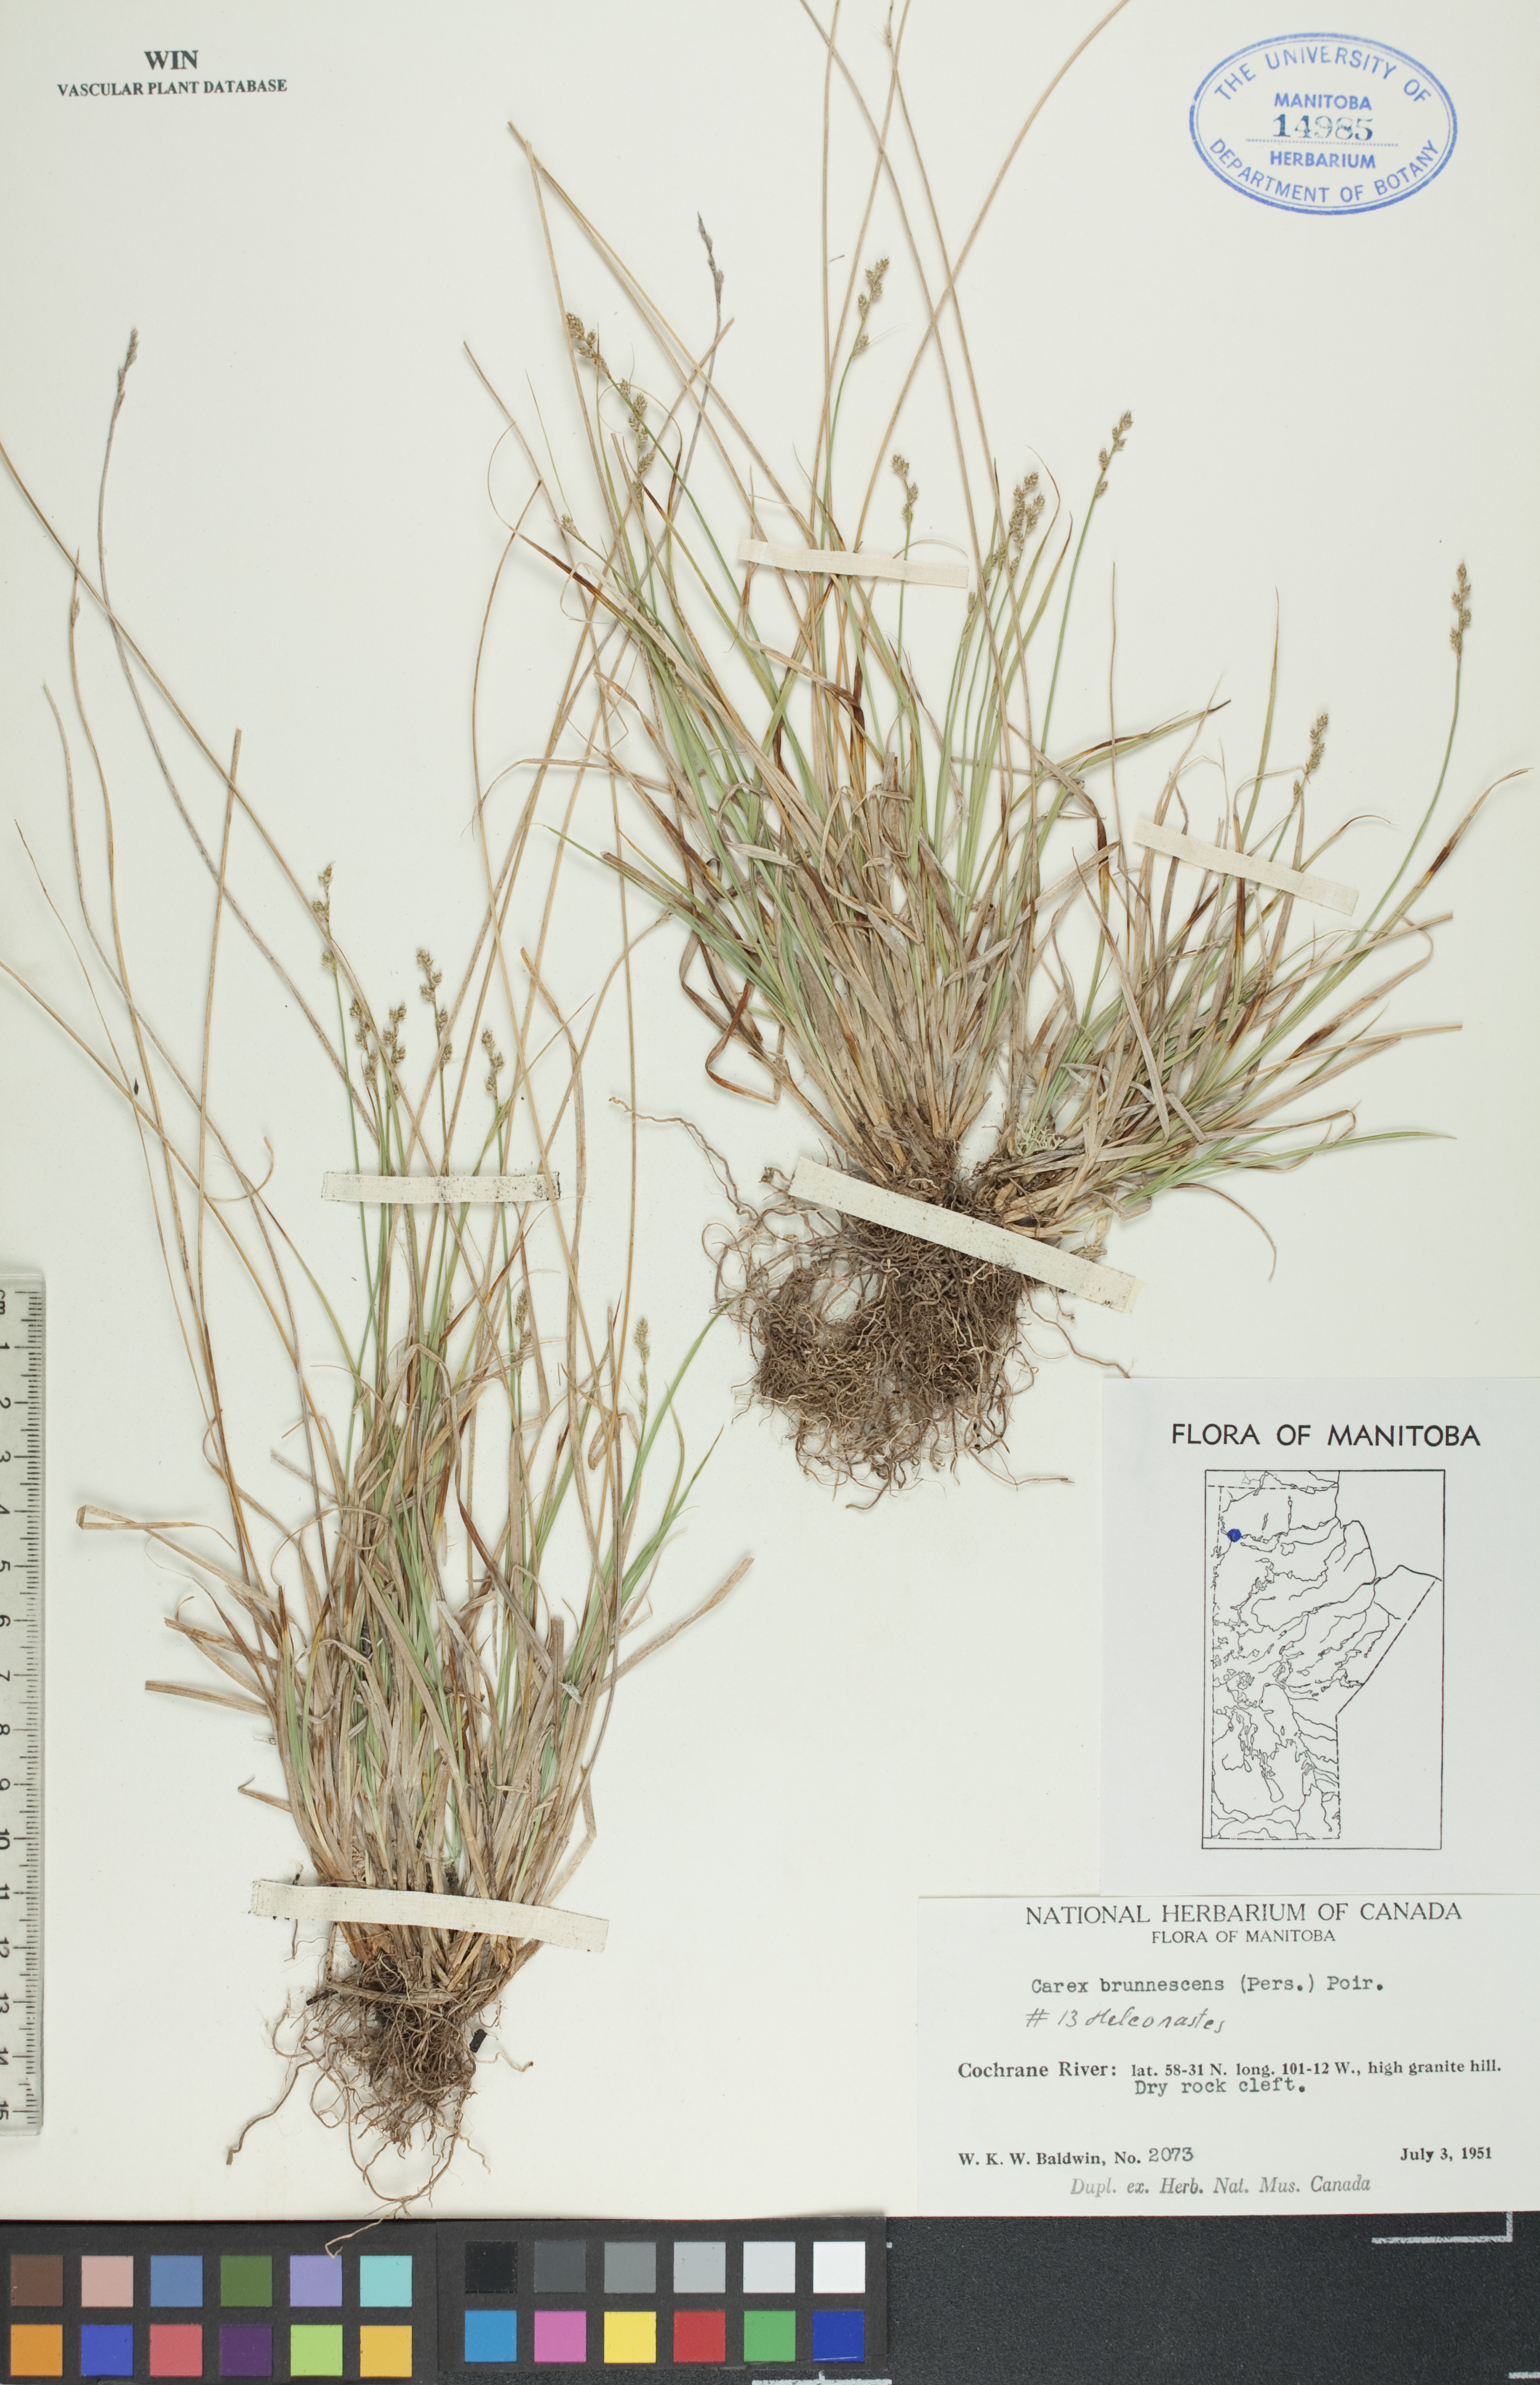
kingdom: Plantae
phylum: Tracheophyta
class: Liliopsida
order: Poales
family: Cyperaceae
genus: Carex
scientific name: Carex brunnescens
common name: Brown sedge
